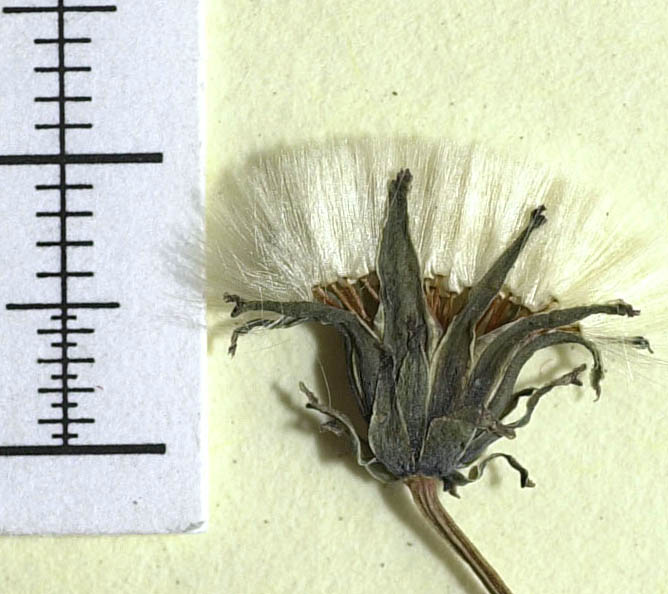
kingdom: Plantae
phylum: Tracheophyta
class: Magnoliopsida
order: Asterales
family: Asteraceae
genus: Taraxacum
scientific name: Taraxacum rubicundum
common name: Ruddy dandelion
